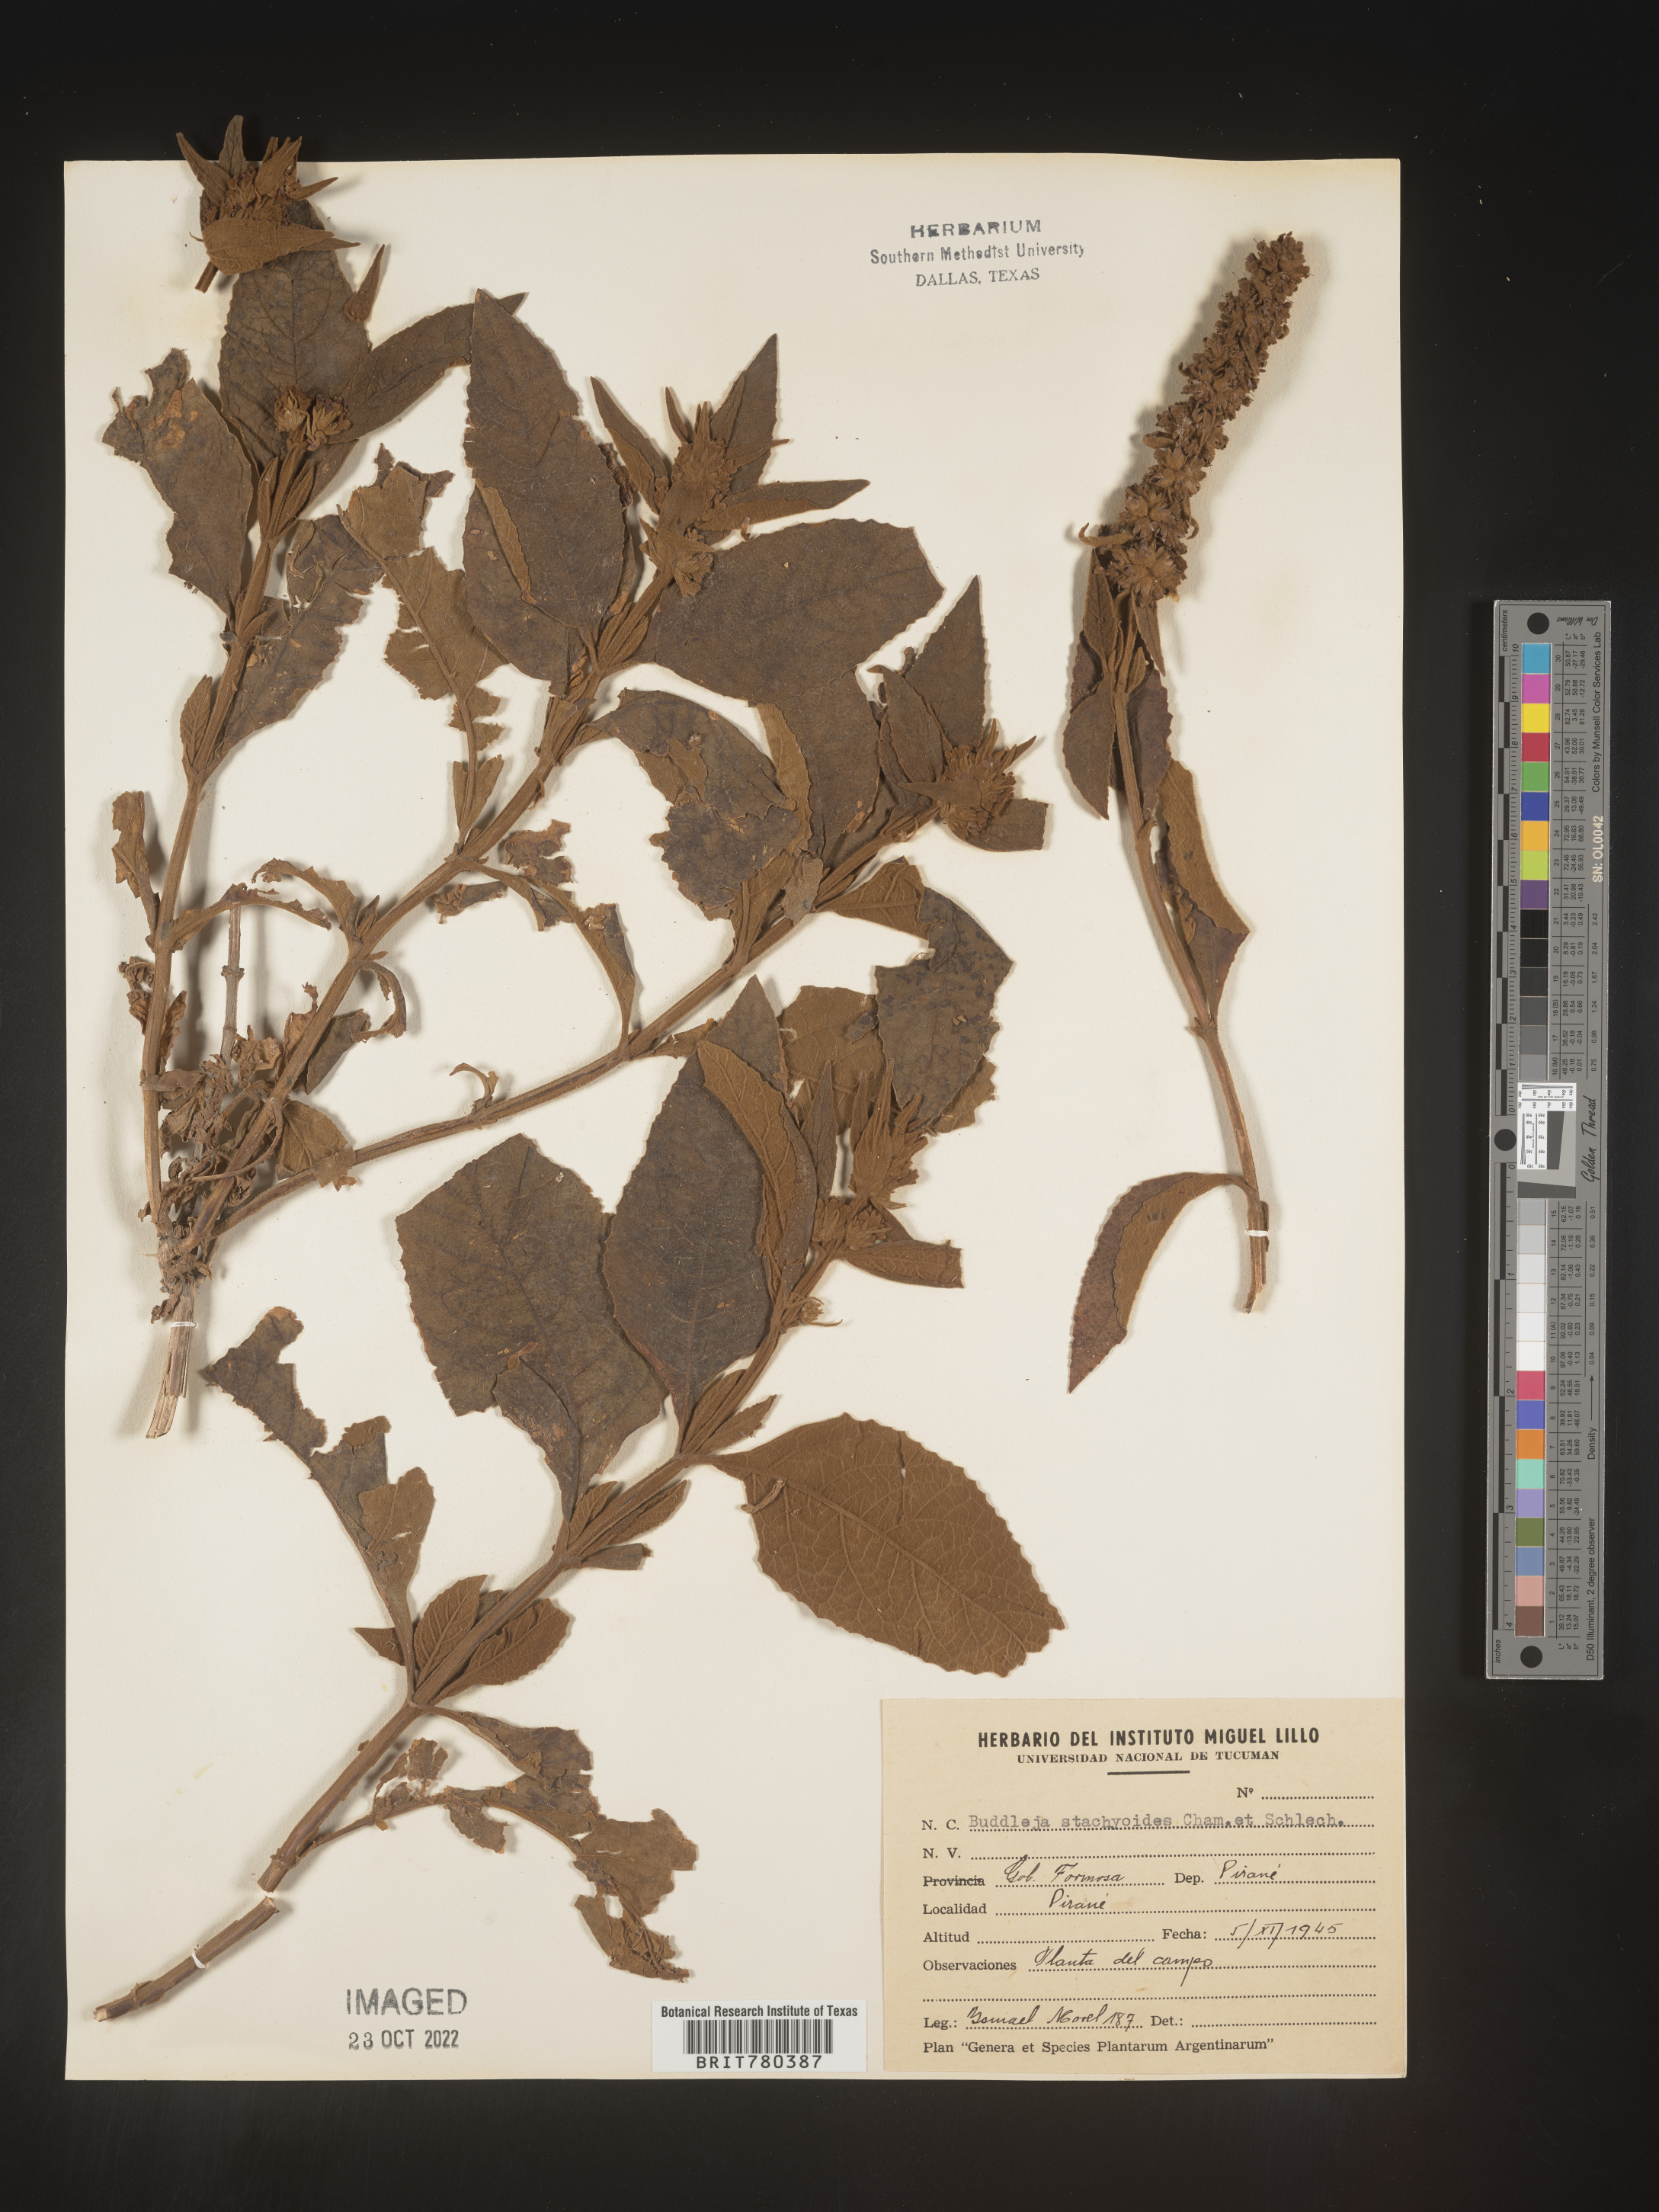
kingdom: Plantae
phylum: Tracheophyta
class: Magnoliopsida
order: Lamiales
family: Scrophulariaceae
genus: Buddleja
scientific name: Buddleja
